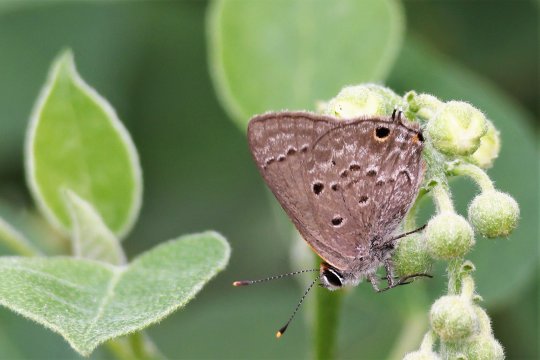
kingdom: Animalia
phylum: Arthropoda
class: Insecta
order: Lepidoptera
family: Lycaenidae
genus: Callicista
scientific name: Callicista columella
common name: Mallow Scrub-Hairstreak
